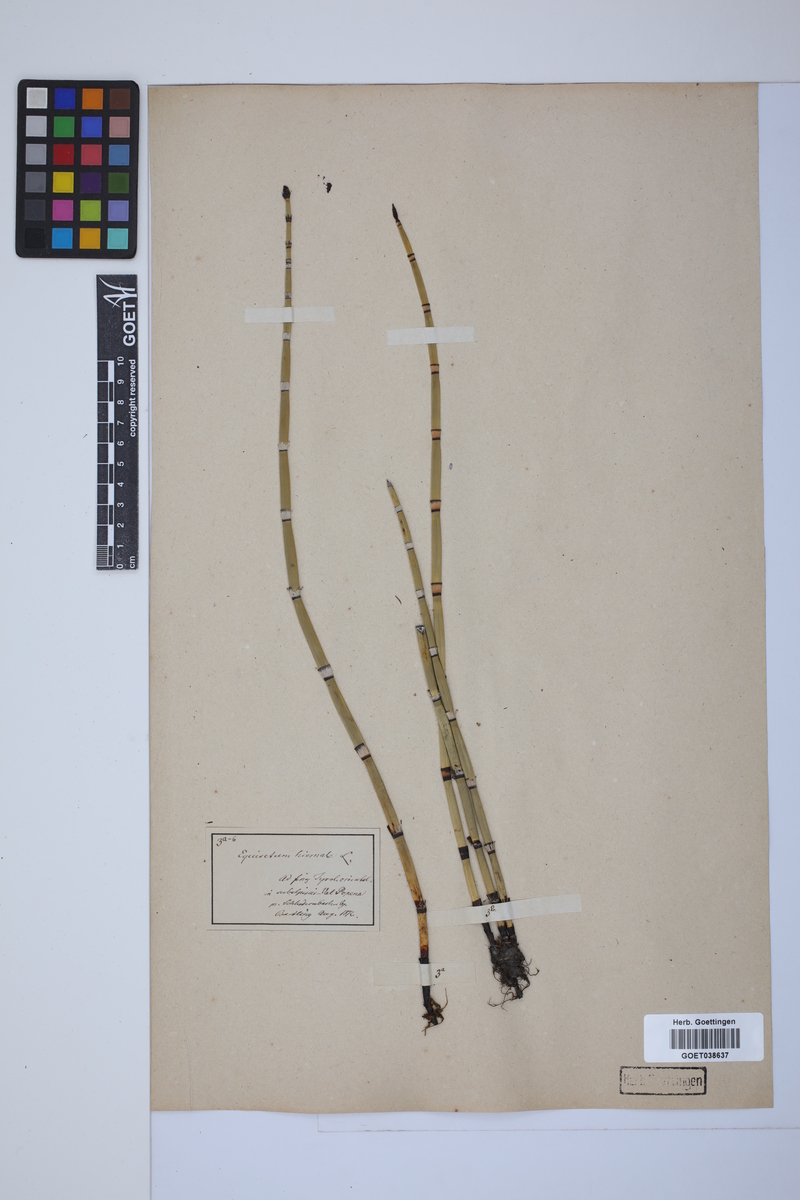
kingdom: Plantae
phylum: Tracheophyta
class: Polypodiopsida
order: Equisetales
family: Equisetaceae
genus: Equisetum
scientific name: Equisetum hyemale
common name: Rough horsetail
